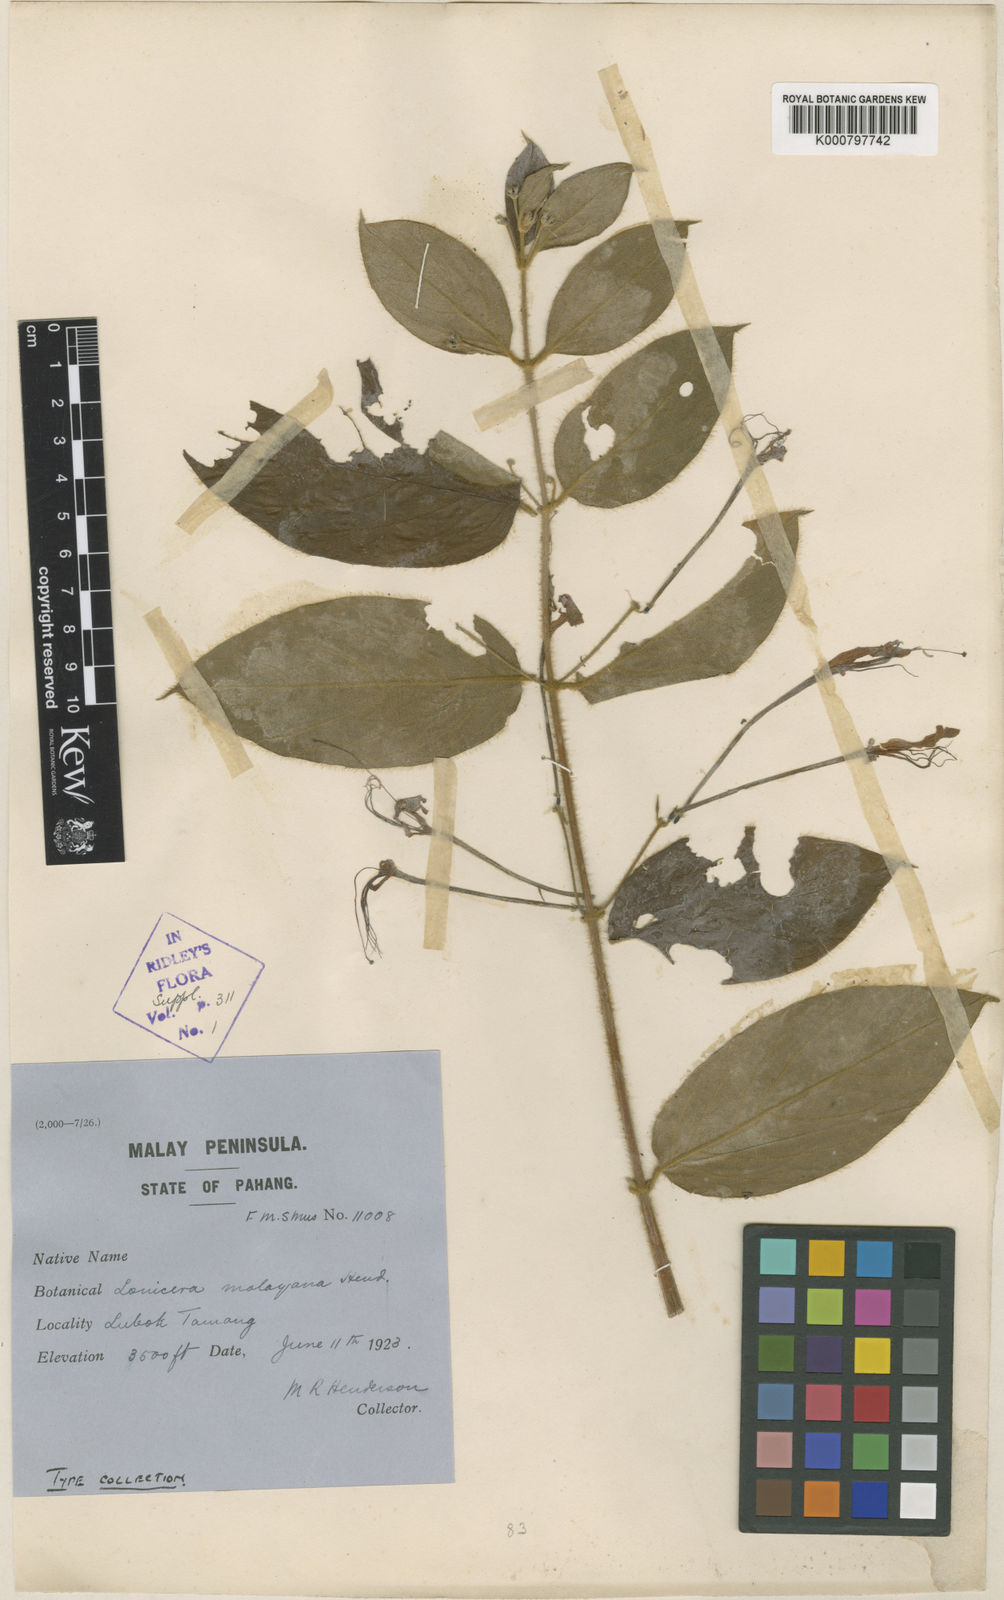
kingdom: Plantae
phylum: Tracheophyta
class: Magnoliopsida
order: Dipsacales
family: Caprifoliaceae
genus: Lonicera
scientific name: Lonicera malayana
